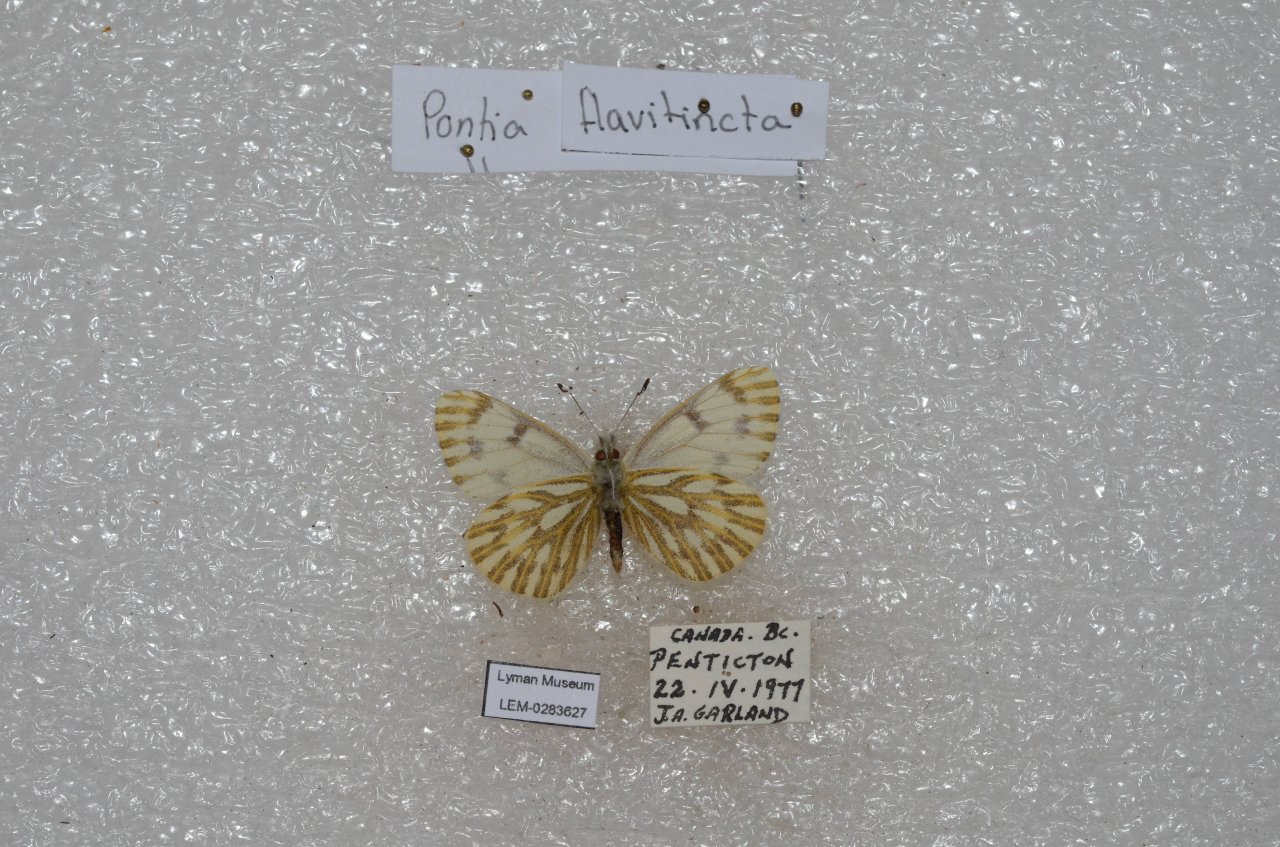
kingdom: Animalia
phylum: Arthropoda
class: Insecta
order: Lepidoptera
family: Pieridae
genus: Pontia
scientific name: Pontia sisymbrii
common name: Spring White
